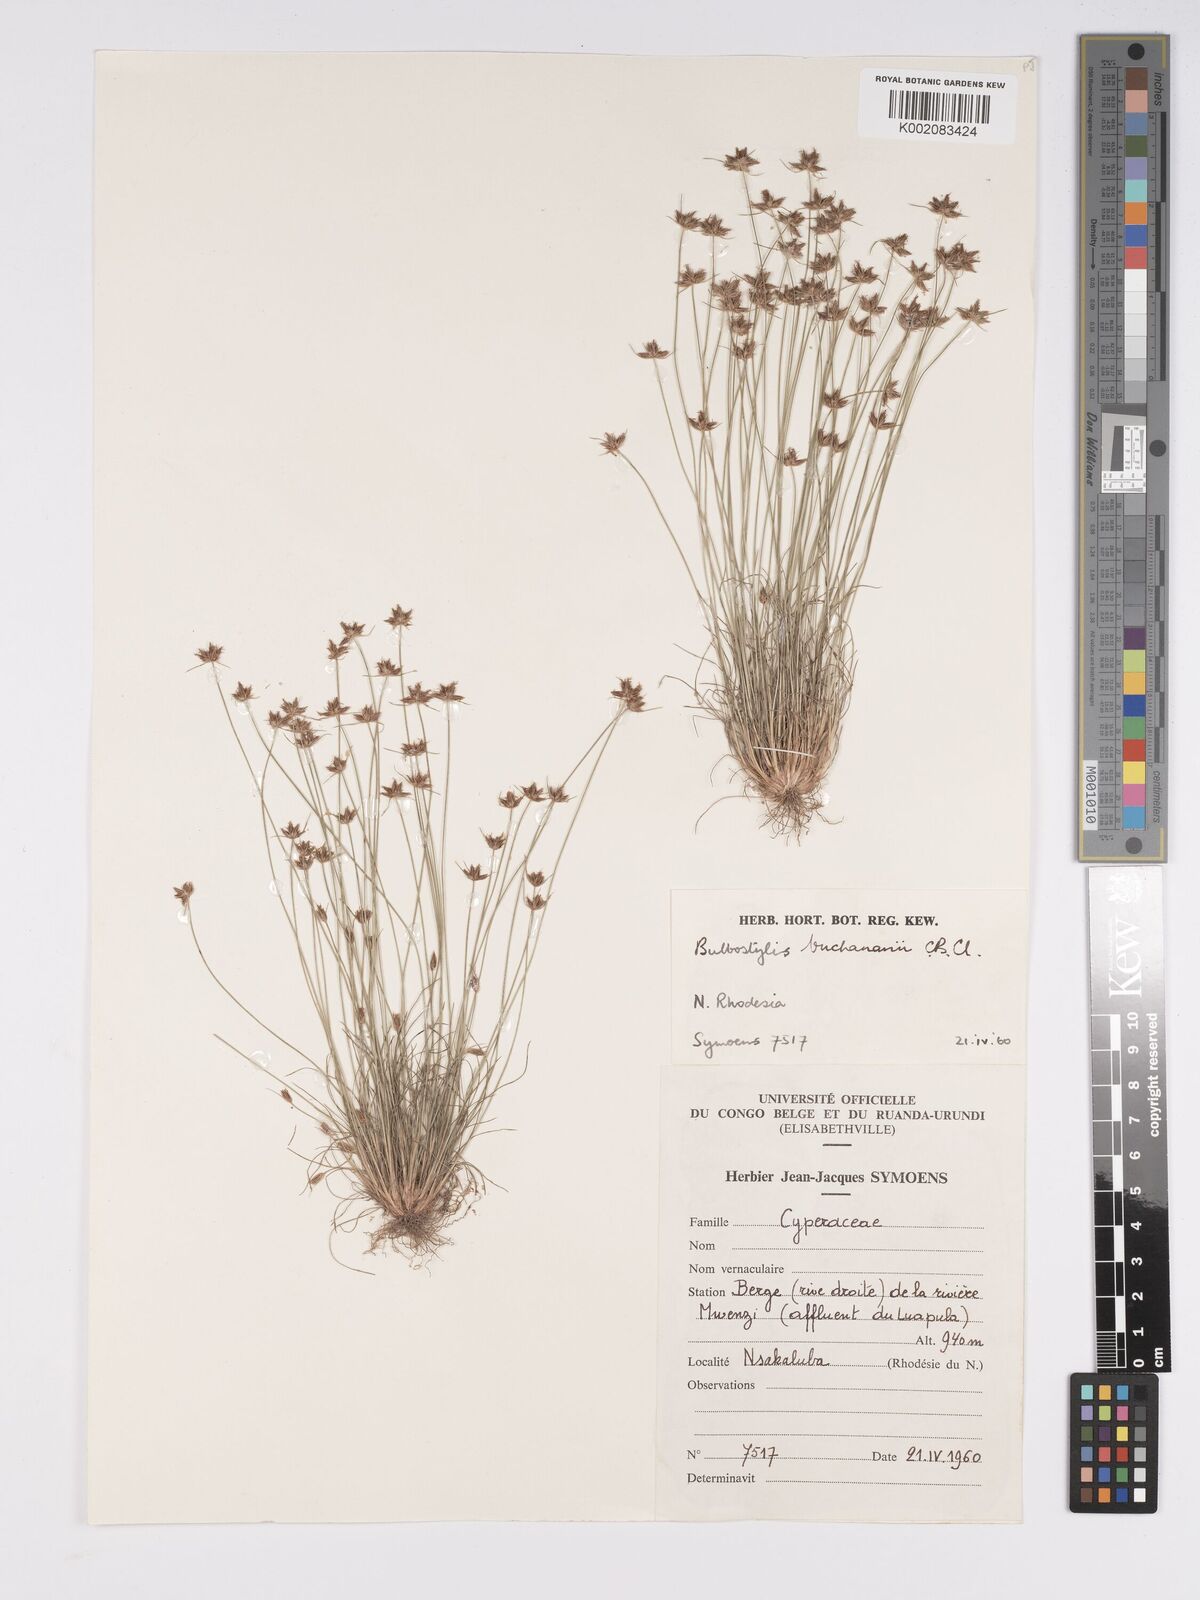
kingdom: Plantae
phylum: Tracheophyta
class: Liliopsida
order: Poales
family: Cyperaceae
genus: Bulbostylis
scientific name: Bulbostylis buchananii
